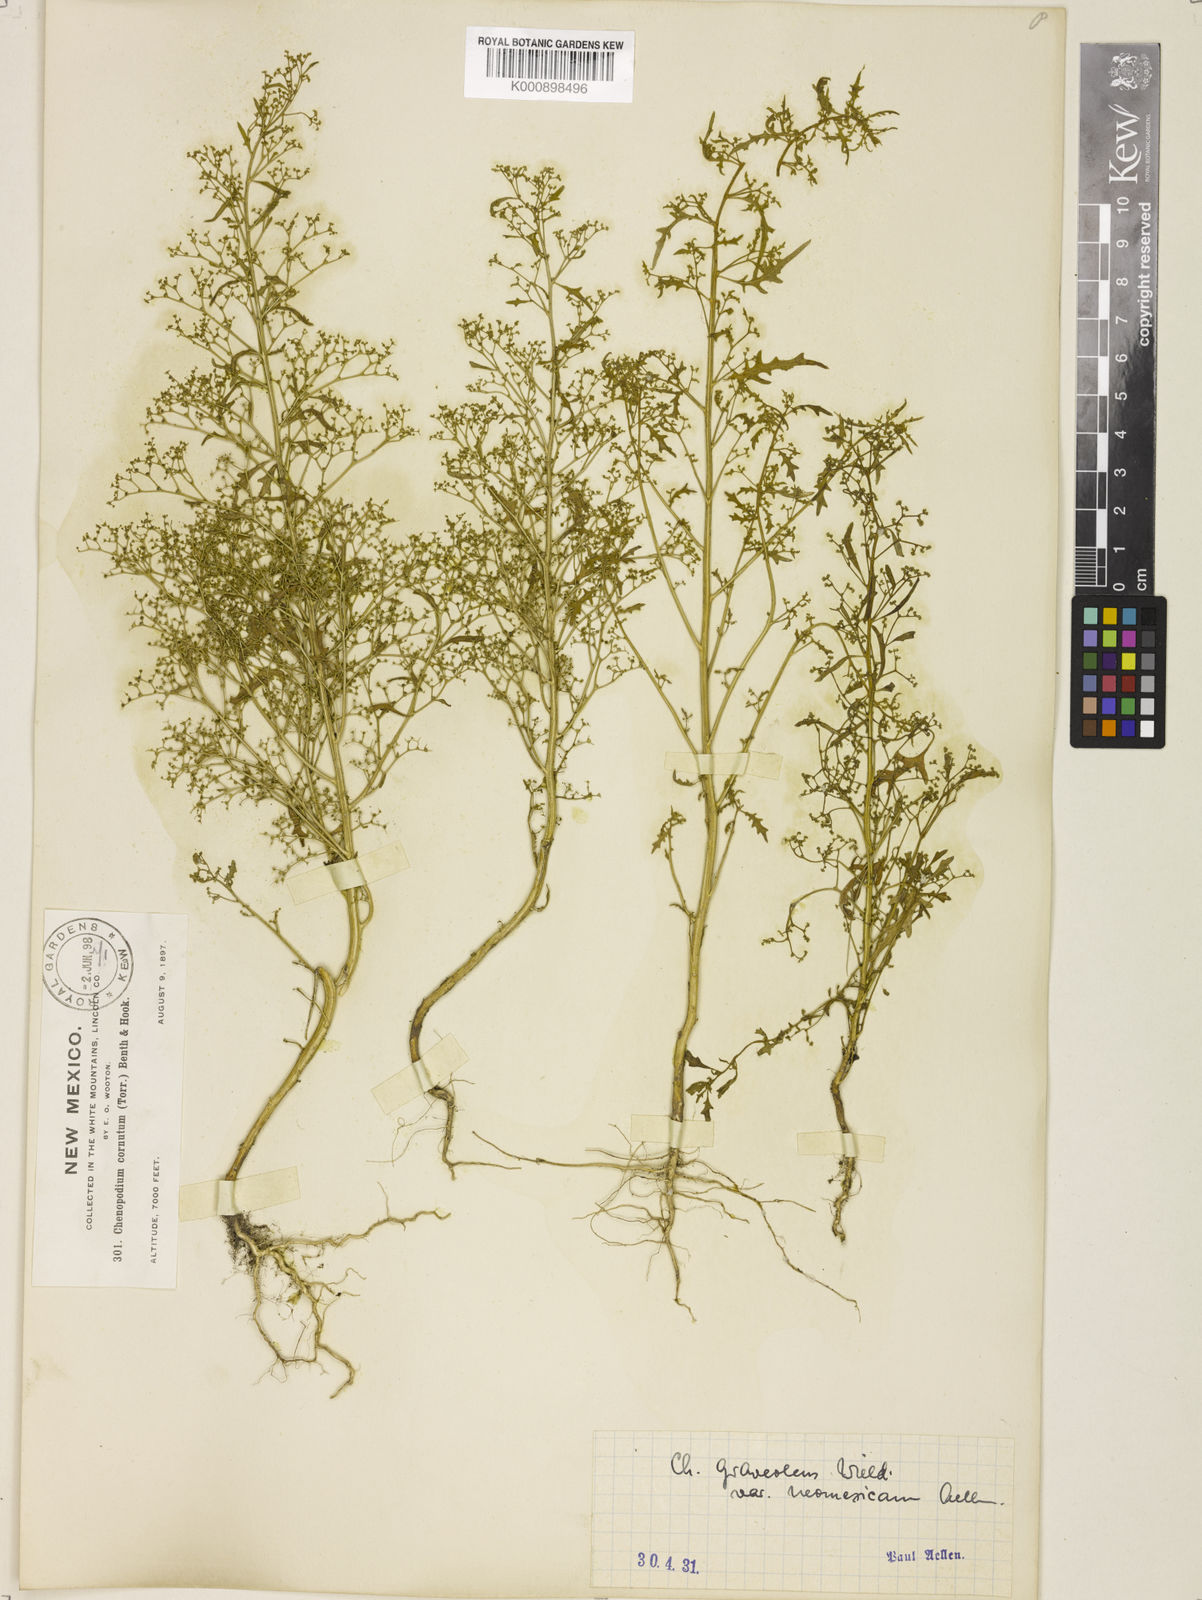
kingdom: Plantae
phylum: Tracheophyta
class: Magnoliopsida
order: Caryophyllales
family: Amaranthaceae
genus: Dysphania
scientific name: Dysphania graveolens
